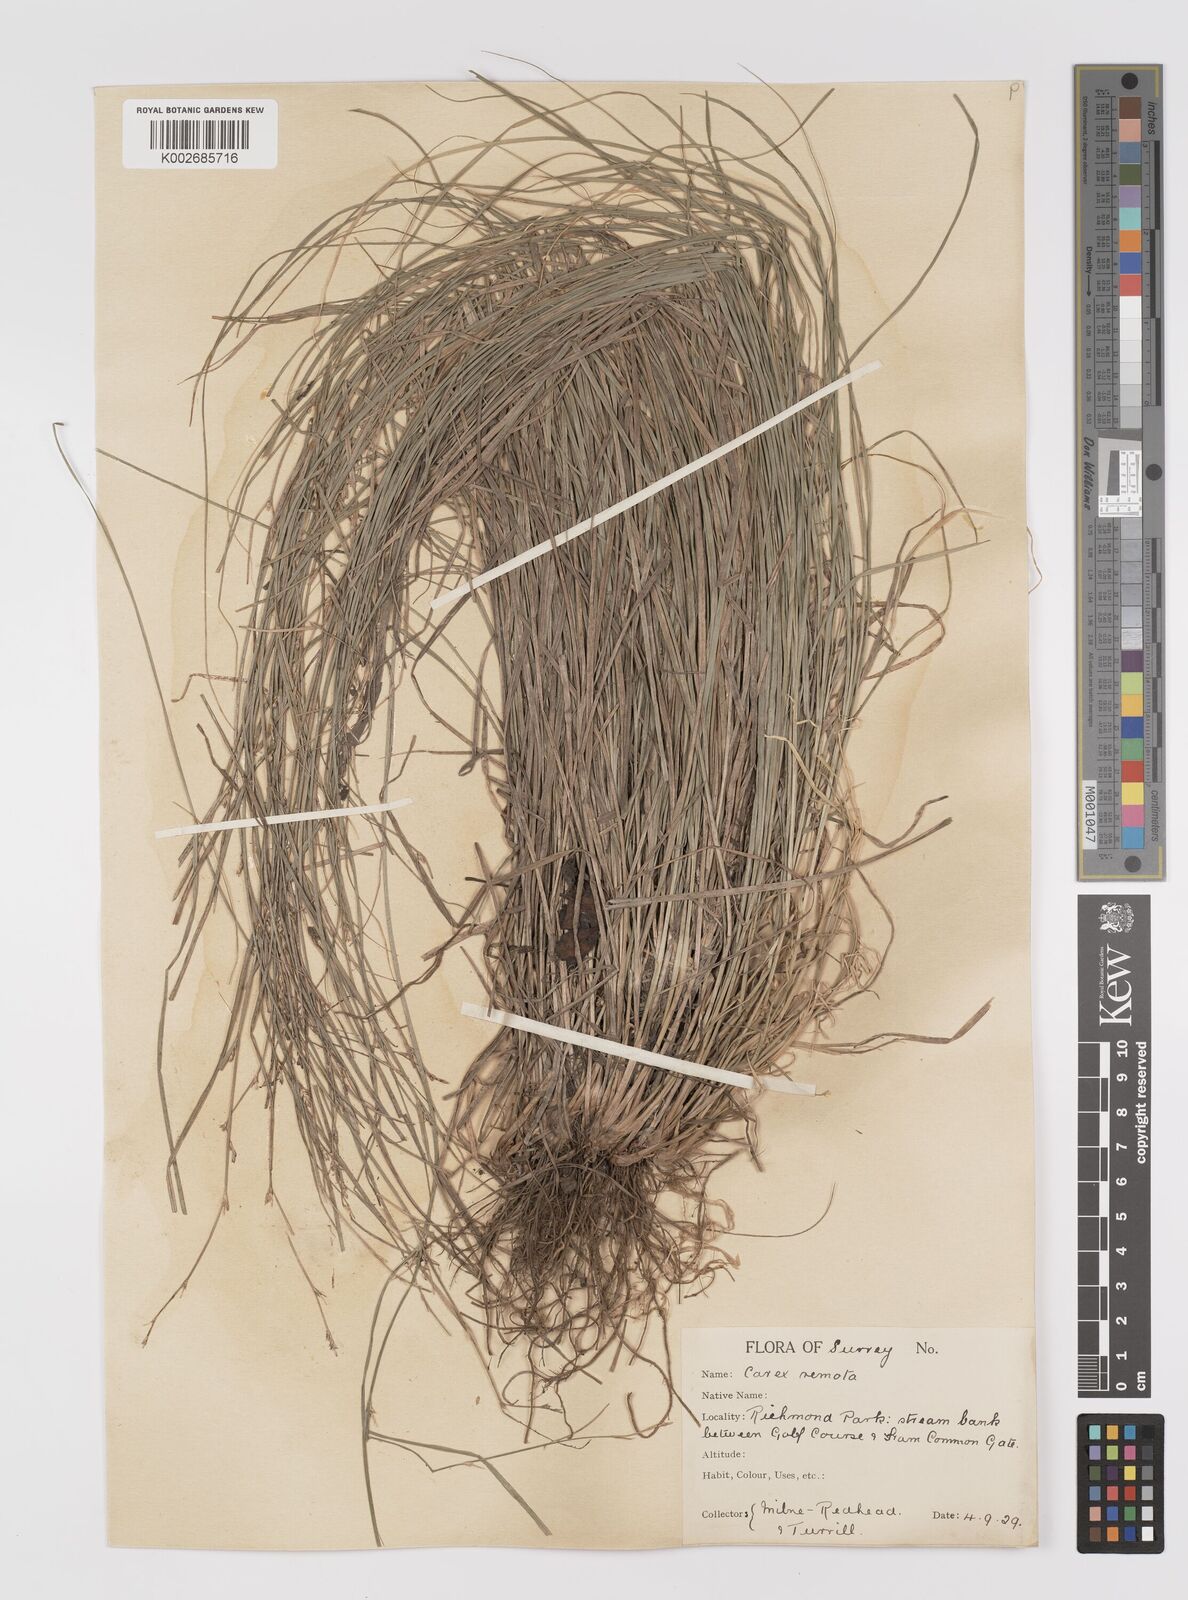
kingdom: Plantae
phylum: Tracheophyta
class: Liliopsida
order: Poales
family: Cyperaceae
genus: Carex
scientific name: Carex remota
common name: Remote sedge
